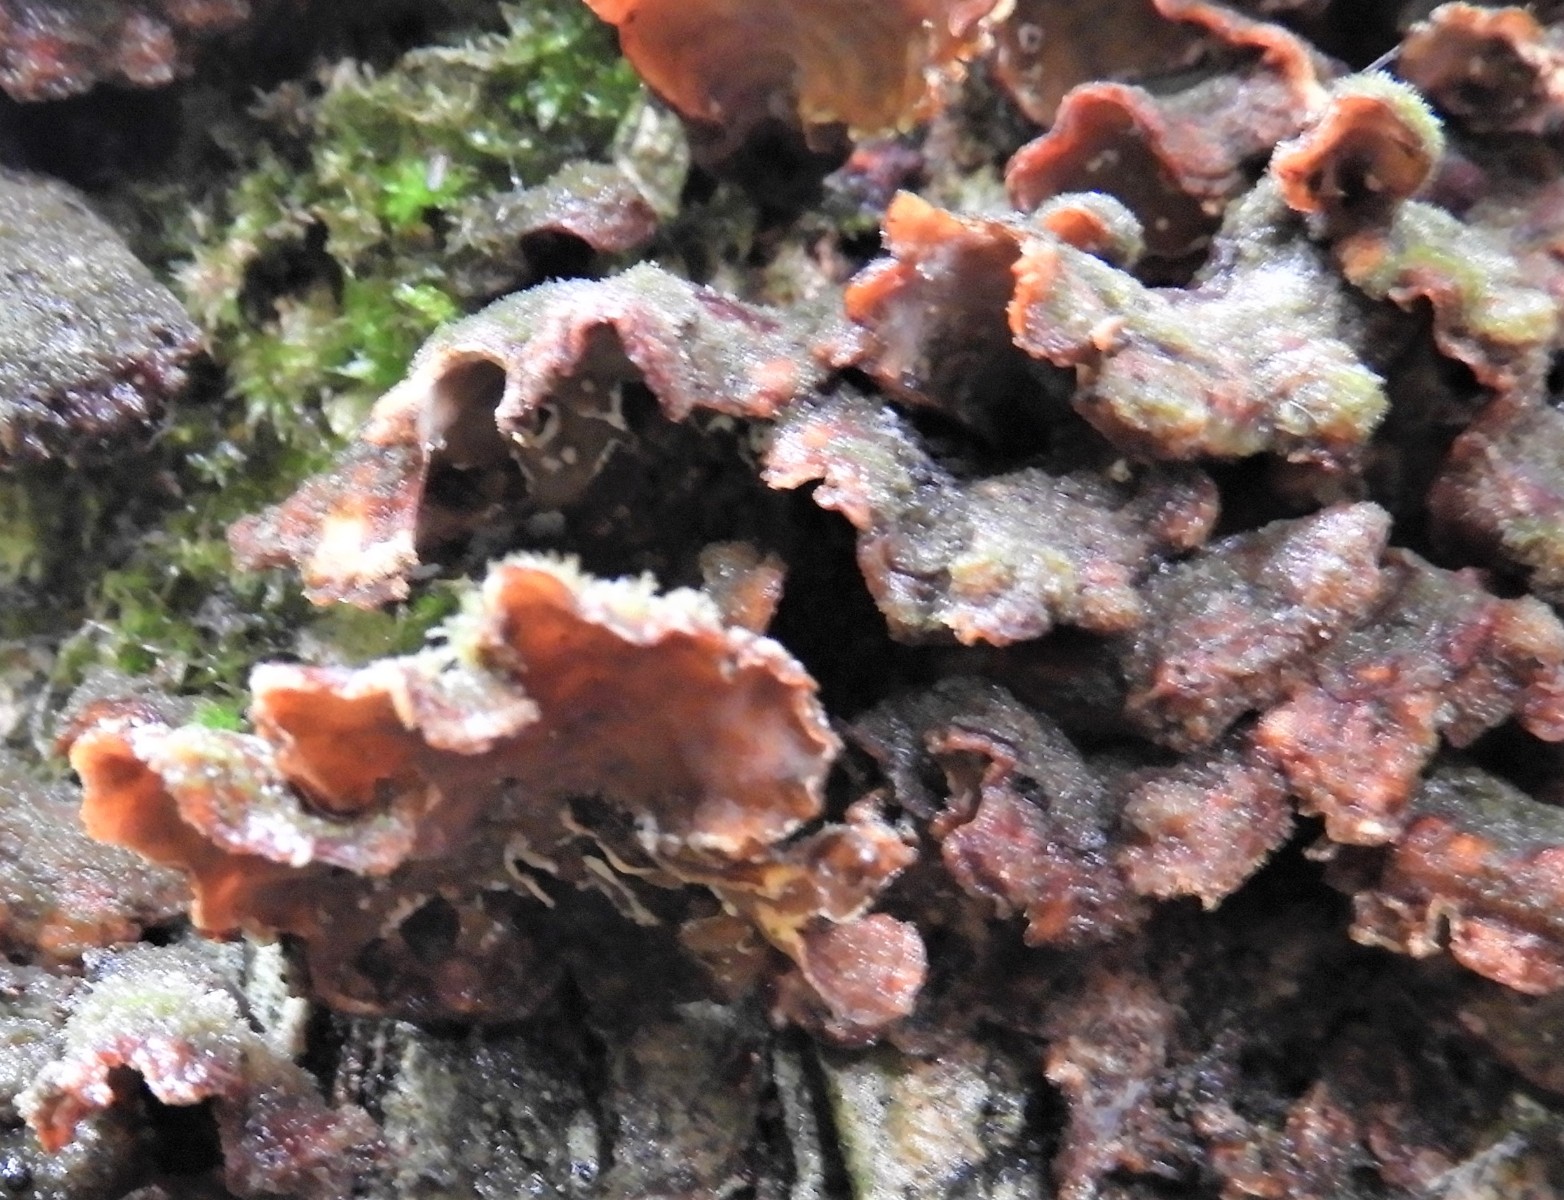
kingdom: Fungi
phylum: Basidiomycota
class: Agaricomycetes
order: Russulales
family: Stereaceae
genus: Stereum
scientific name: Stereum hirsutum
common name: håret lædersvamp
